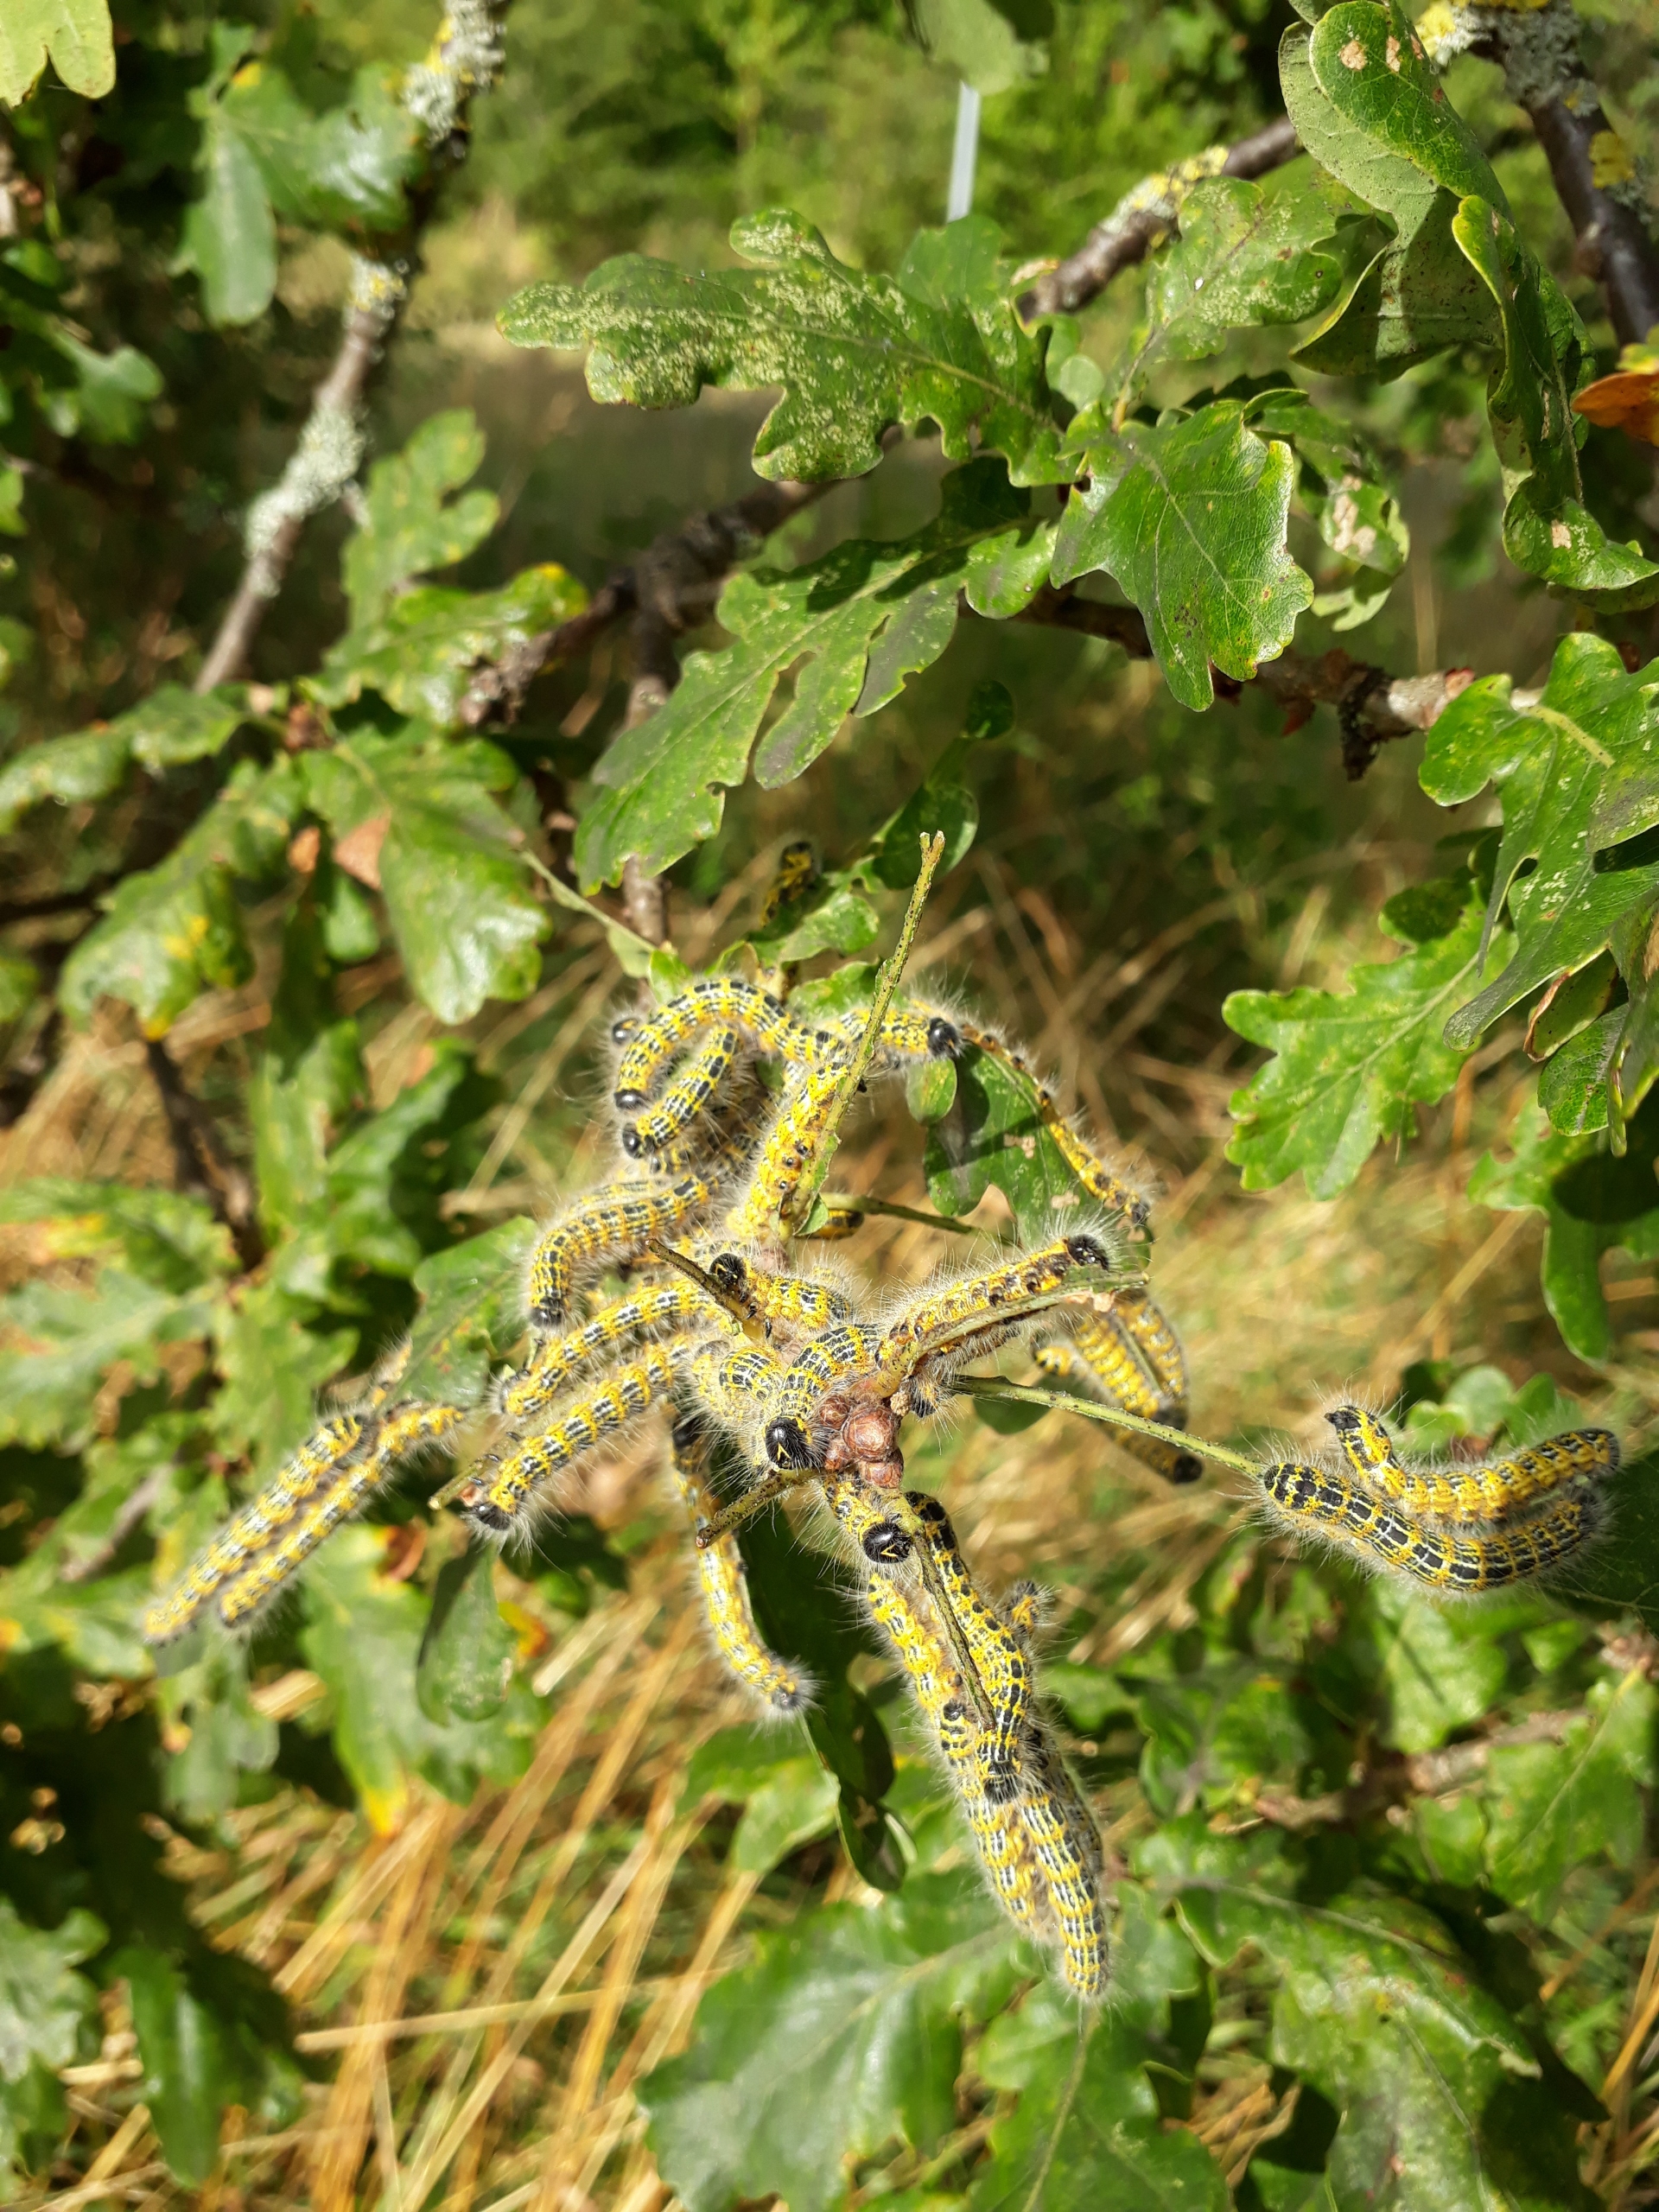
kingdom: Animalia
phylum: Arthropoda
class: Insecta
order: Lepidoptera
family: Notodontidae
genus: Phalera
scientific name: Phalera bucephala
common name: Måneplet
